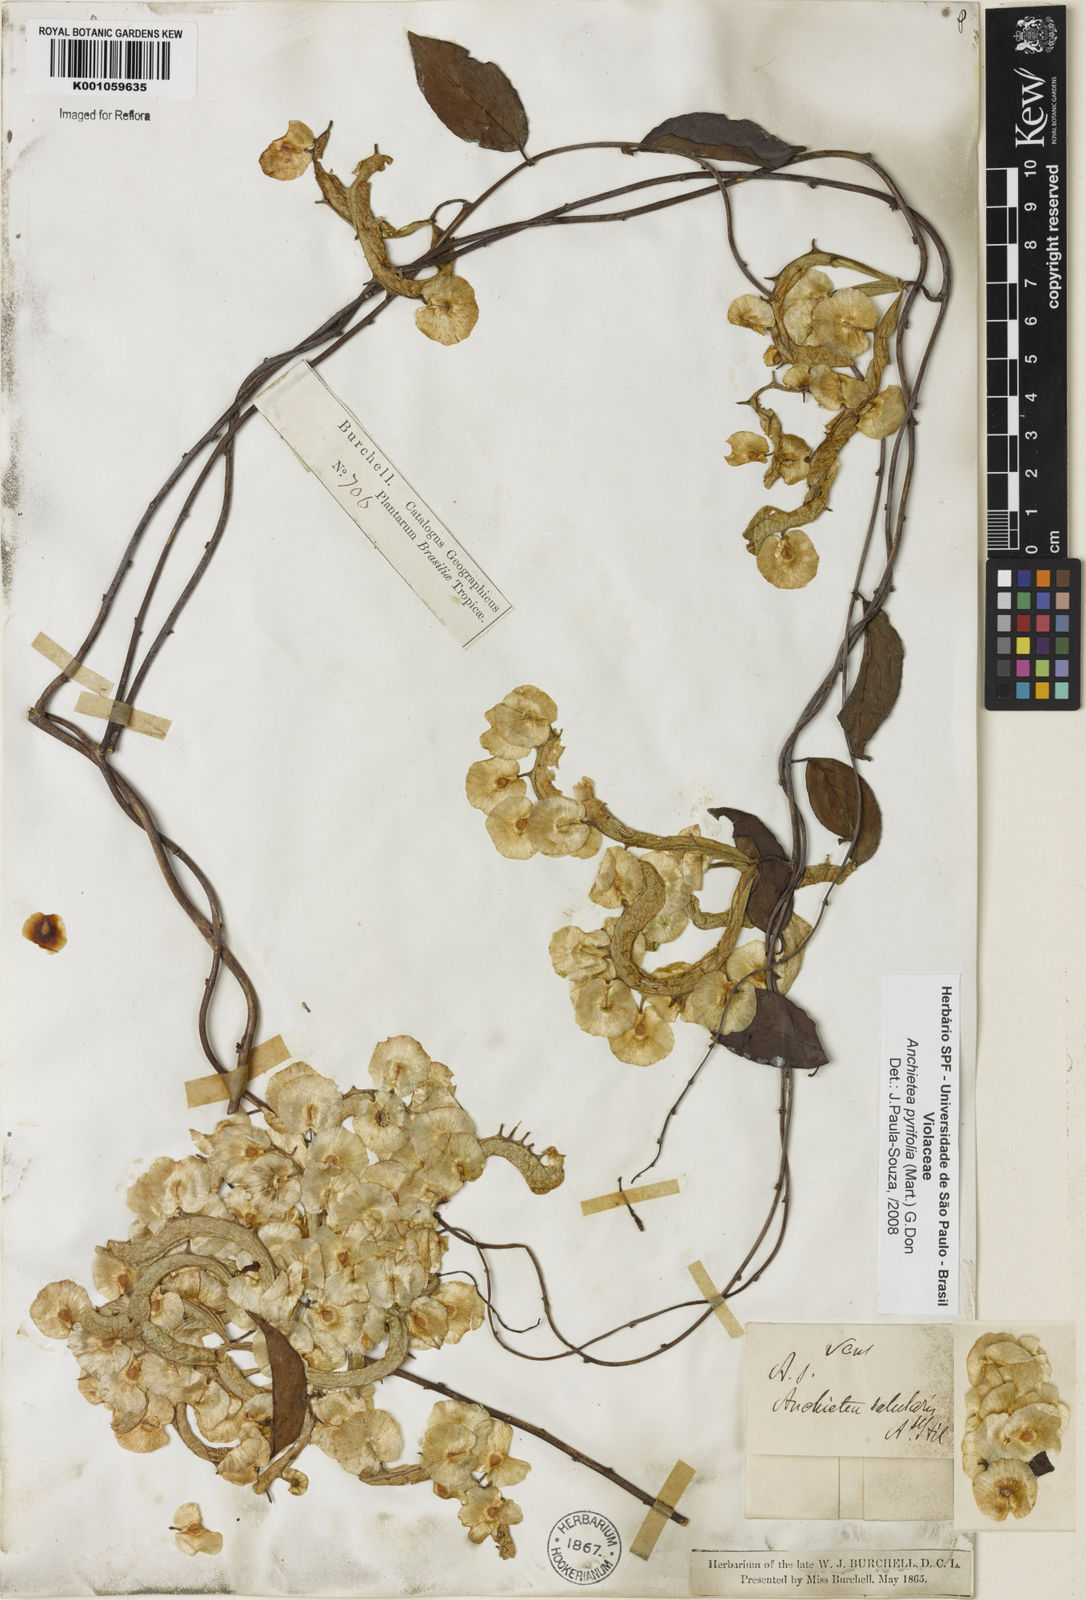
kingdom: Plantae
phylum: Tracheophyta
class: Magnoliopsida
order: Malpighiales
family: Violaceae
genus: Anchietea
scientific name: Anchietea pyrifolia
